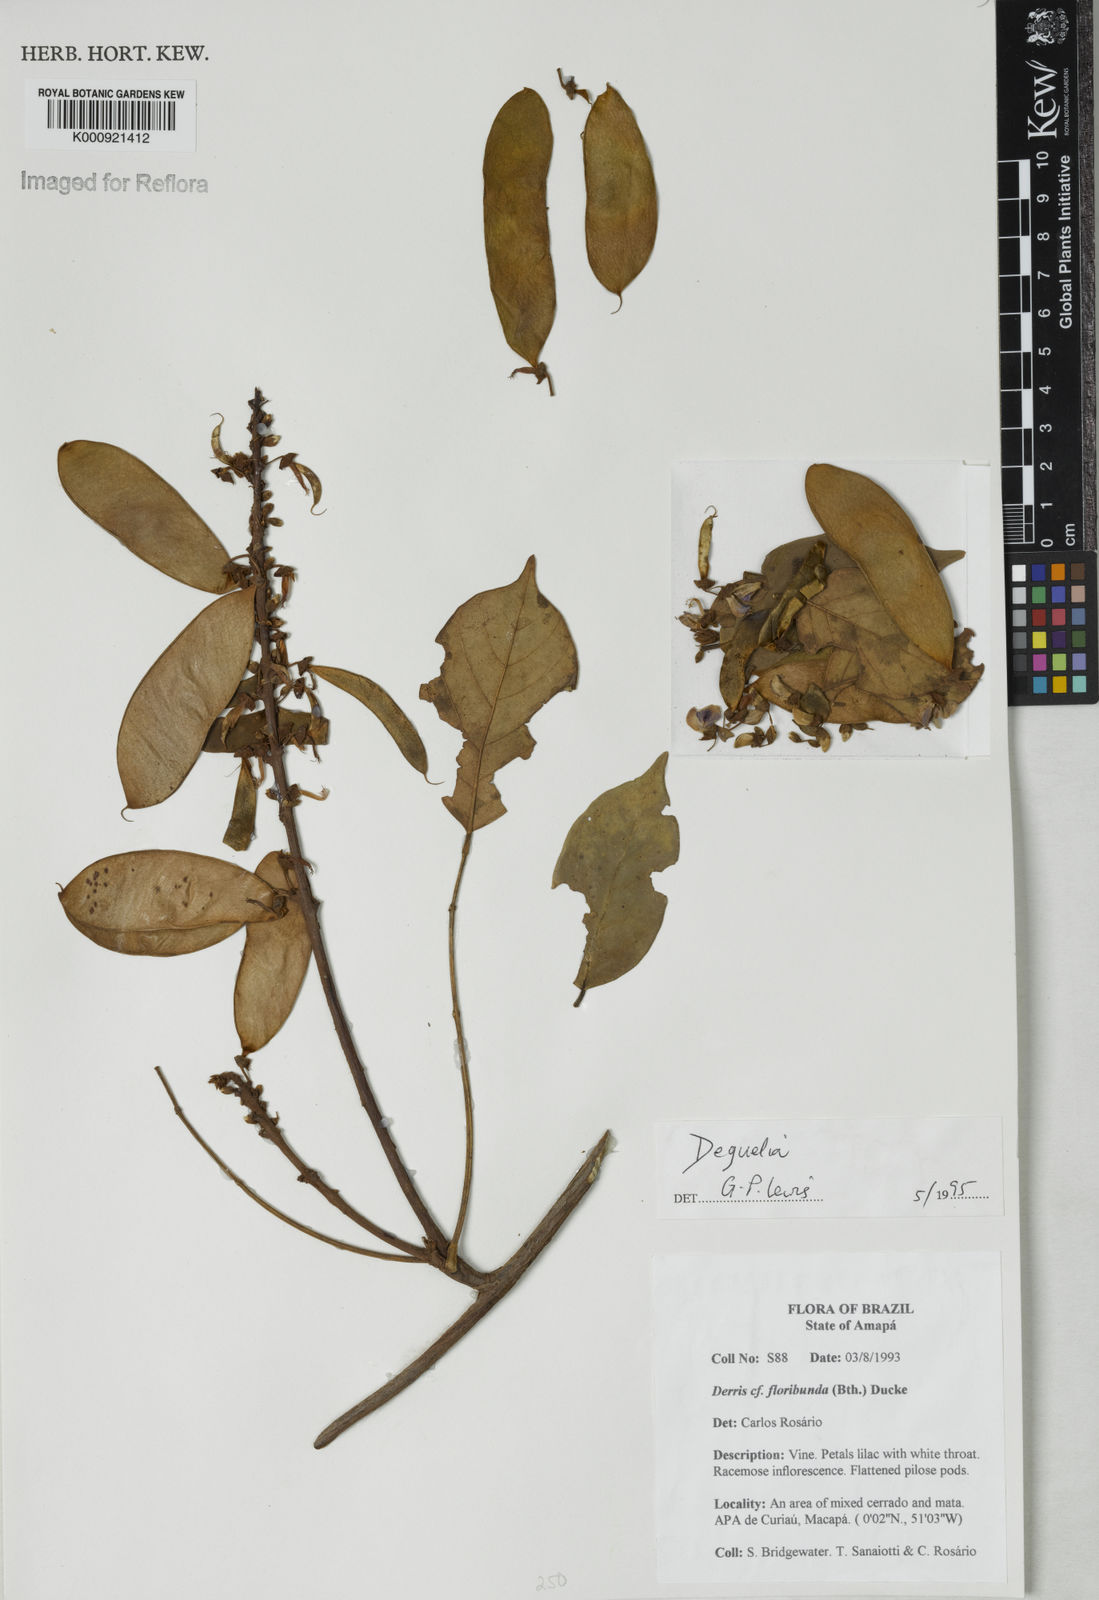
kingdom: Plantae
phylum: Tracheophyta
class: Magnoliopsida
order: Fabales
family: Fabaceae
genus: Deguelia
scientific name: Deguelia
